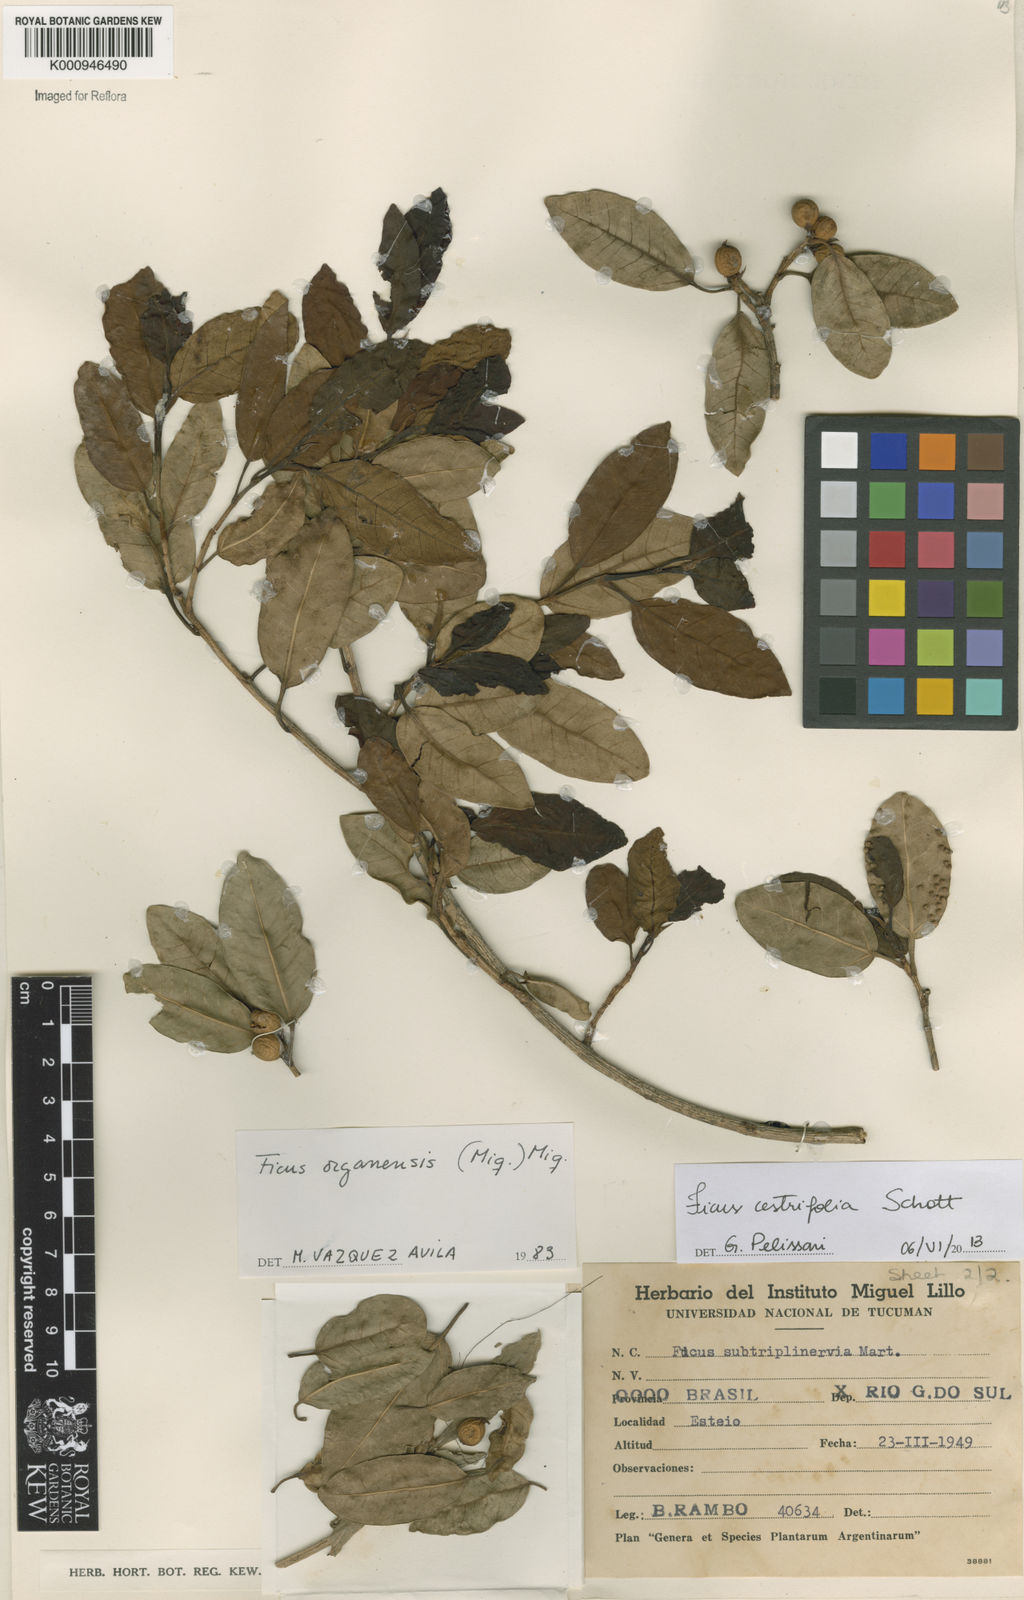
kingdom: Plantae
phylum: Tracheophyta
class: Magnoliopsida
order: Rosales
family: Moraceae
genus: Ficus
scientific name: Ficus
